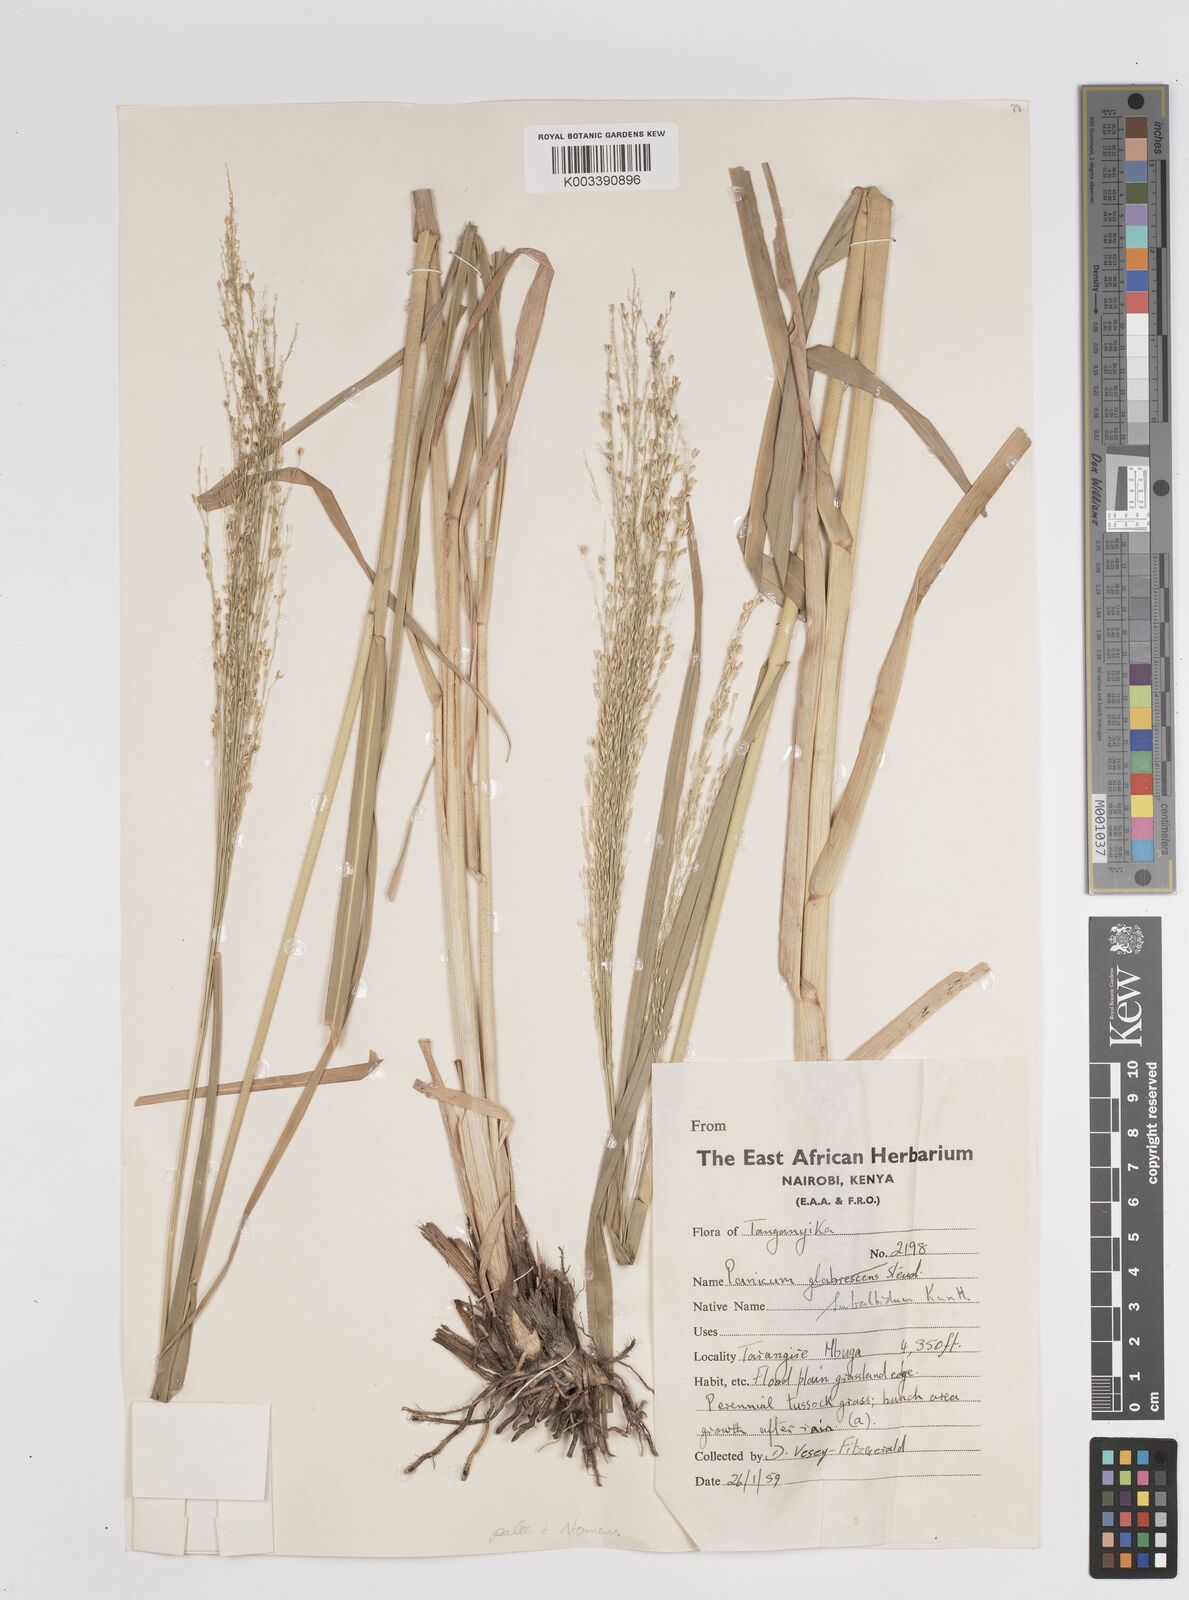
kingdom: Plantae
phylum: Tracheophyta
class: Liliopsida
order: Poales
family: Poaceae
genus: Panicum
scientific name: Panicum merkeri
